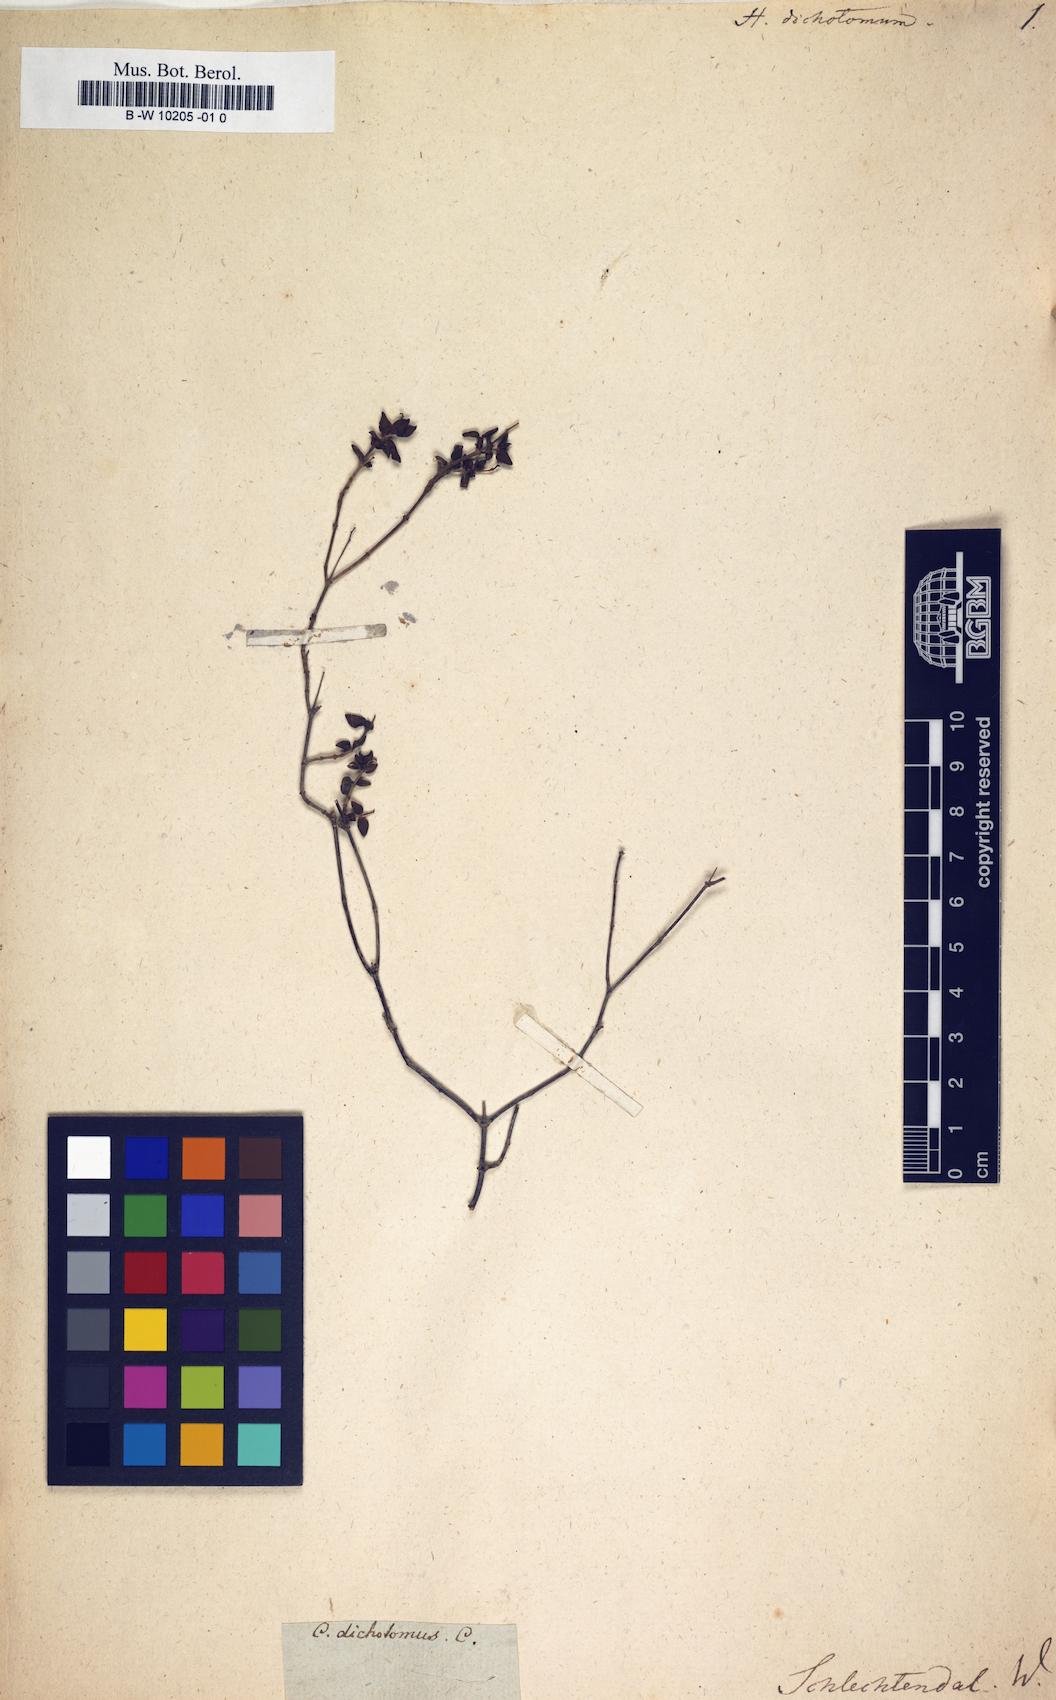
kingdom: Plantae
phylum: Tracheophyta
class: Magnoliopsida
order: Malvales
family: Cistaceae
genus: Helianthemum
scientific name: Helianthemum origanifolium
